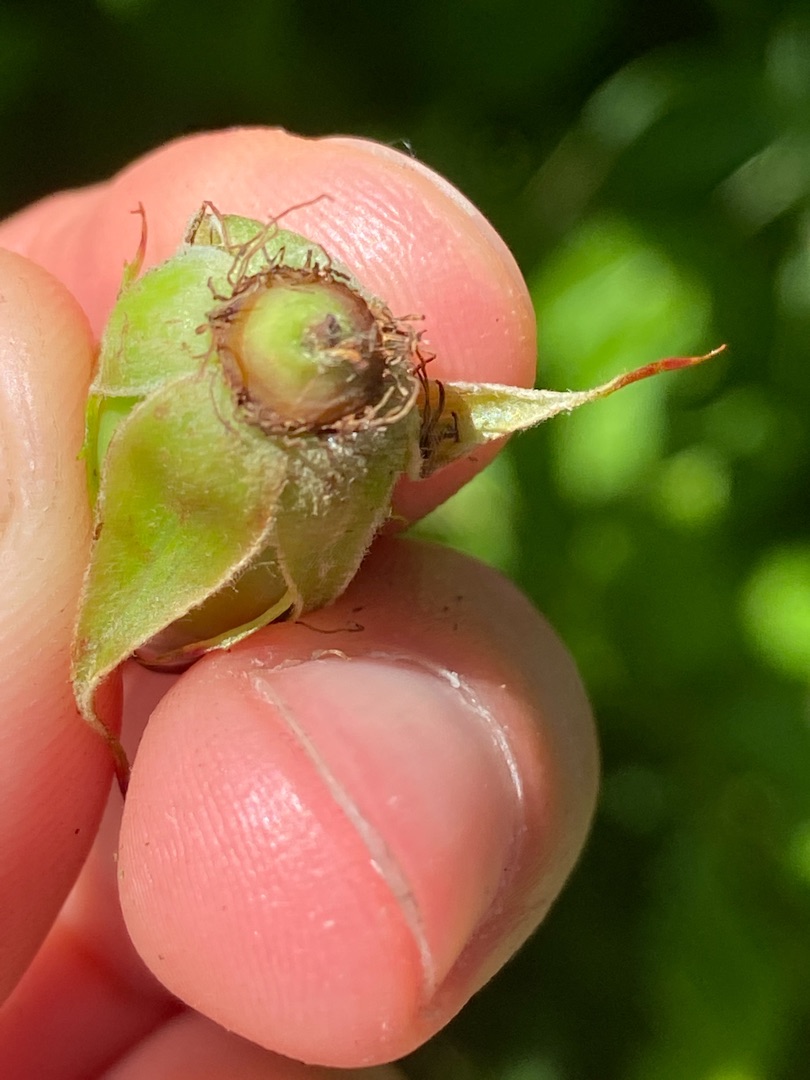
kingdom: Plantae
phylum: Tracheophyta
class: Magnoliopsida
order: Rosales
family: Rosaceae
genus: Rosa
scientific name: Rosa canina
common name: Glat hunde-rose
